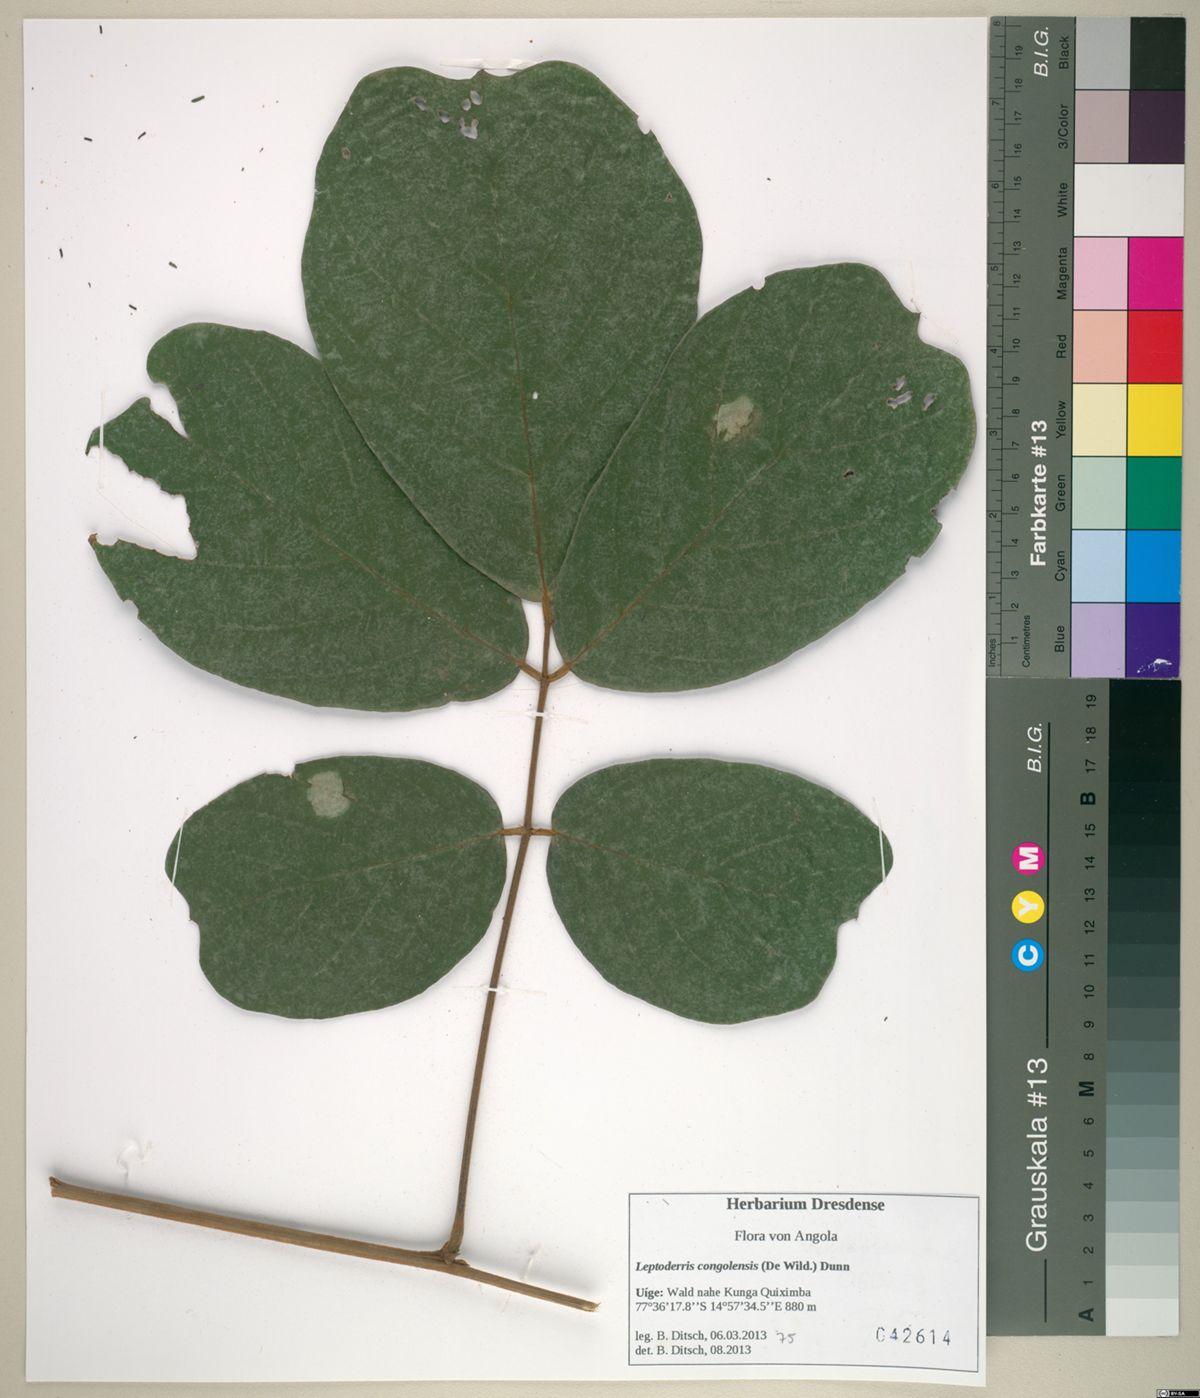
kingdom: Plantae
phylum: Tracheophyta
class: Magnoliopsida
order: Fabales
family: Fabaceae
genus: Leptoderris
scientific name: Leptoderris congolensis
